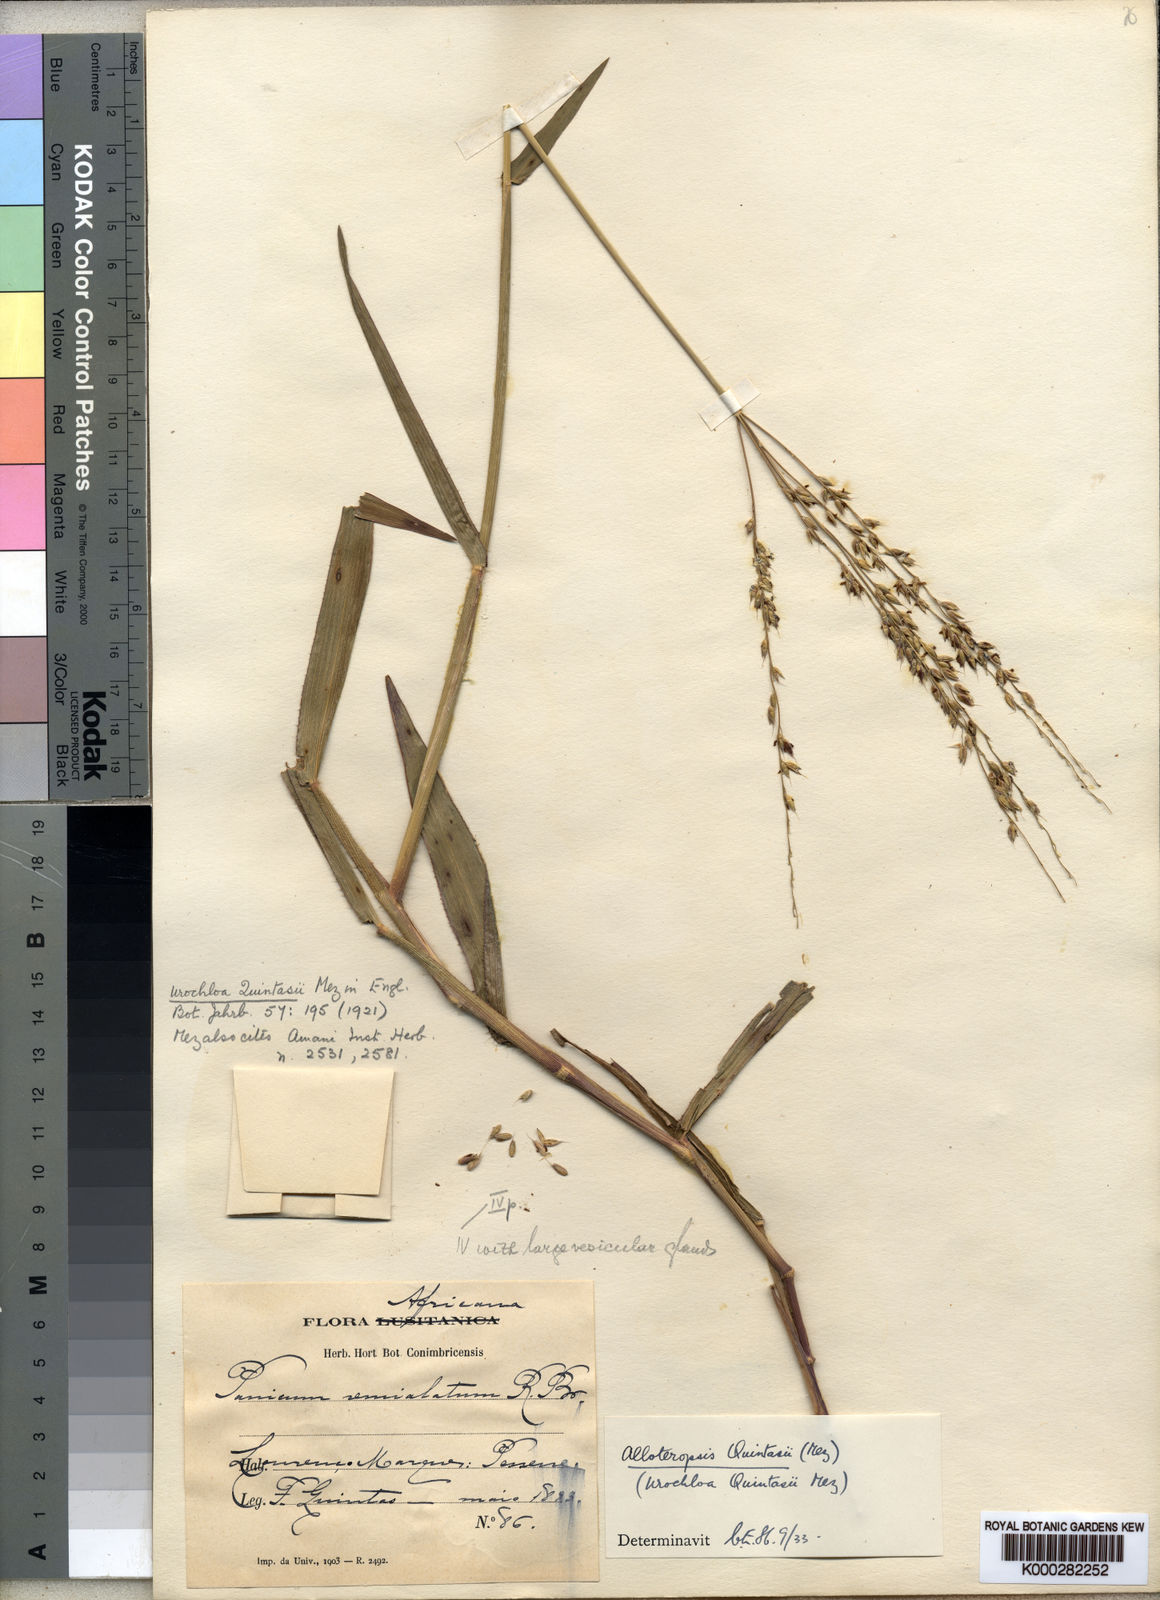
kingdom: Plantae
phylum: Tracheophyta
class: Liliopsida
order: Poales
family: Poaceae
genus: Alloteropsis
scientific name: Alloteropsis cimicina
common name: Summergrass
